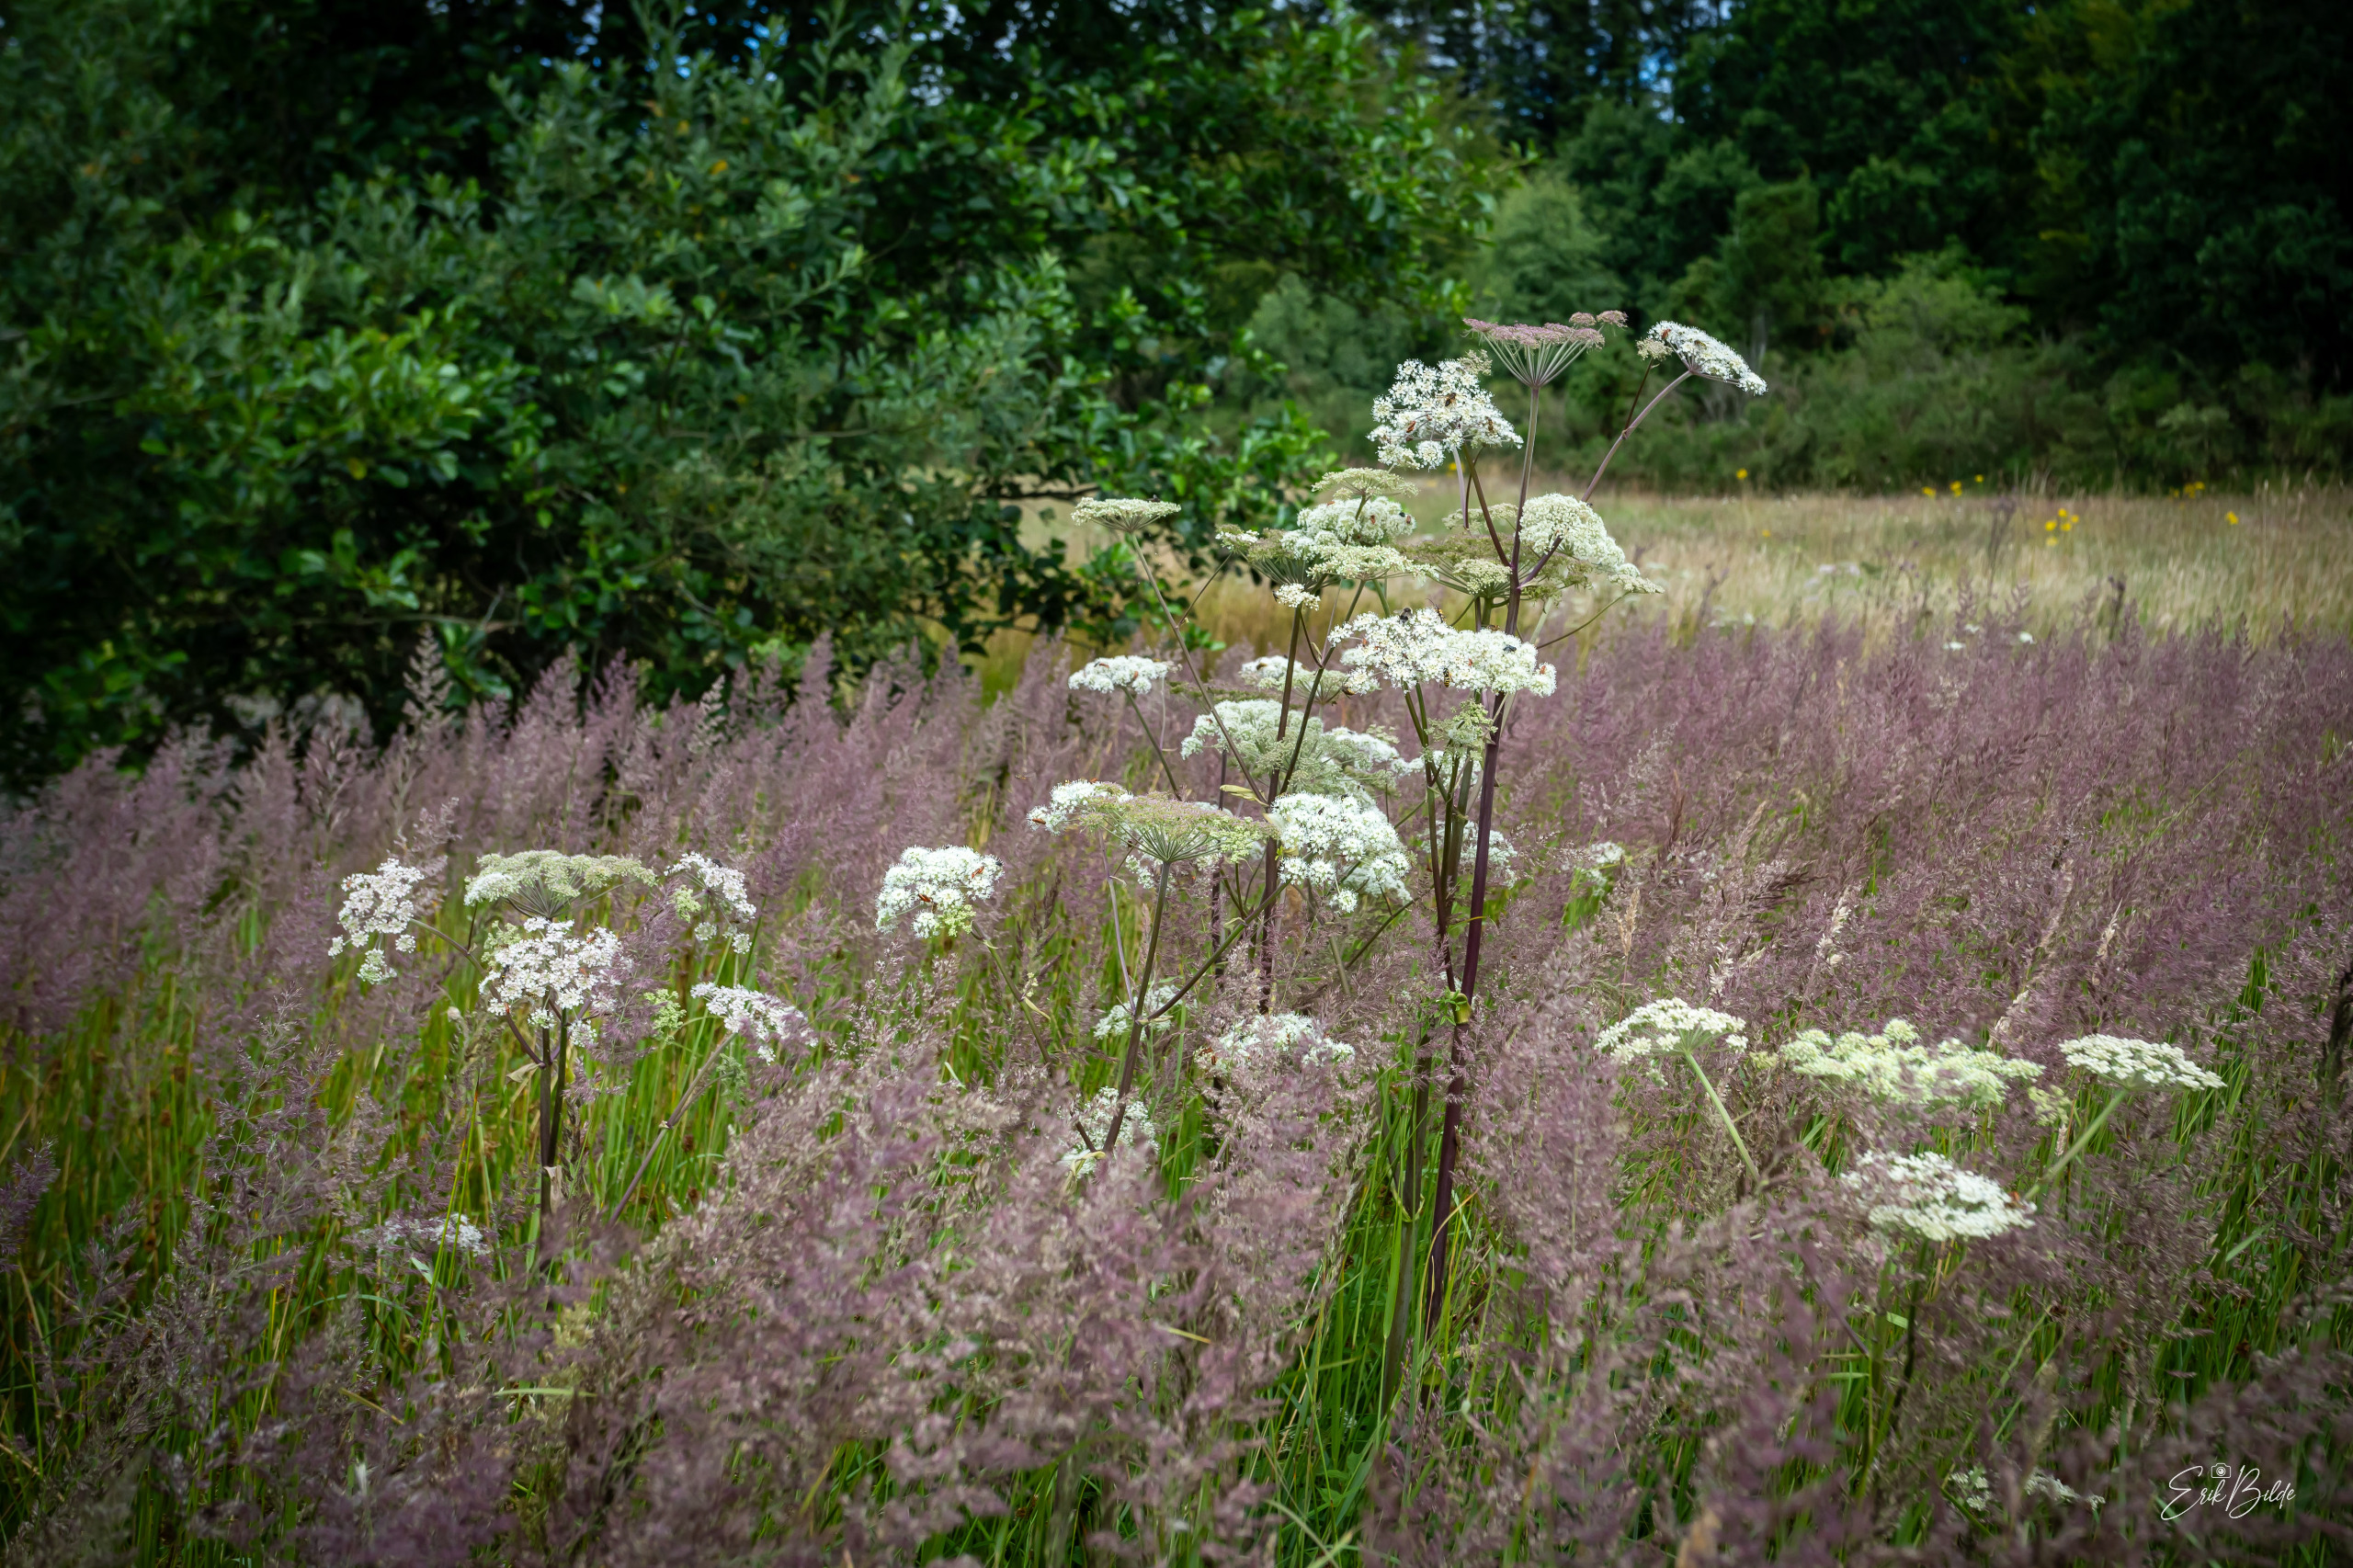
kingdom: Plantae
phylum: Tracheophyta
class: Magnoliopsida
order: Apiales
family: Apiaceae
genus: Angelica
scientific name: Angelica sylvestris
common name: Angelik
